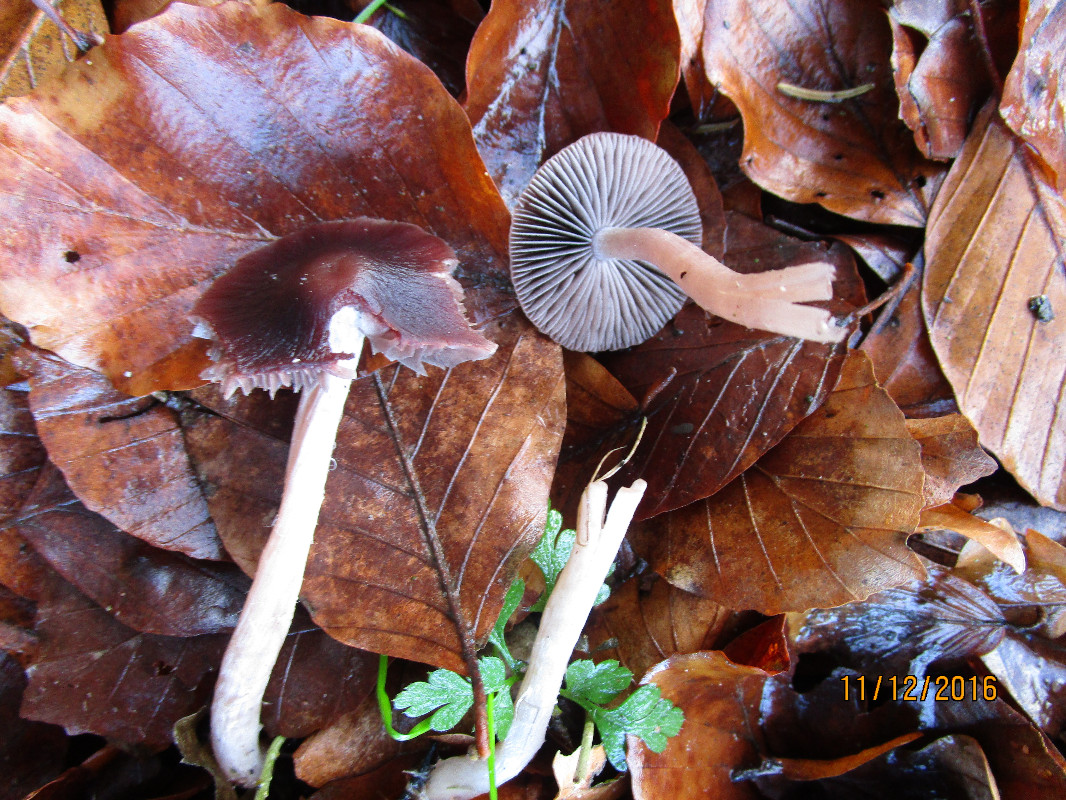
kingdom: Fungi
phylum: Basidiomycota
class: Agaricomycetes
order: Agaricales
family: Psathyrellaceae
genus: Psathyrella
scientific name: Psathyrella bipellis
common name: vinrød mørkhat
